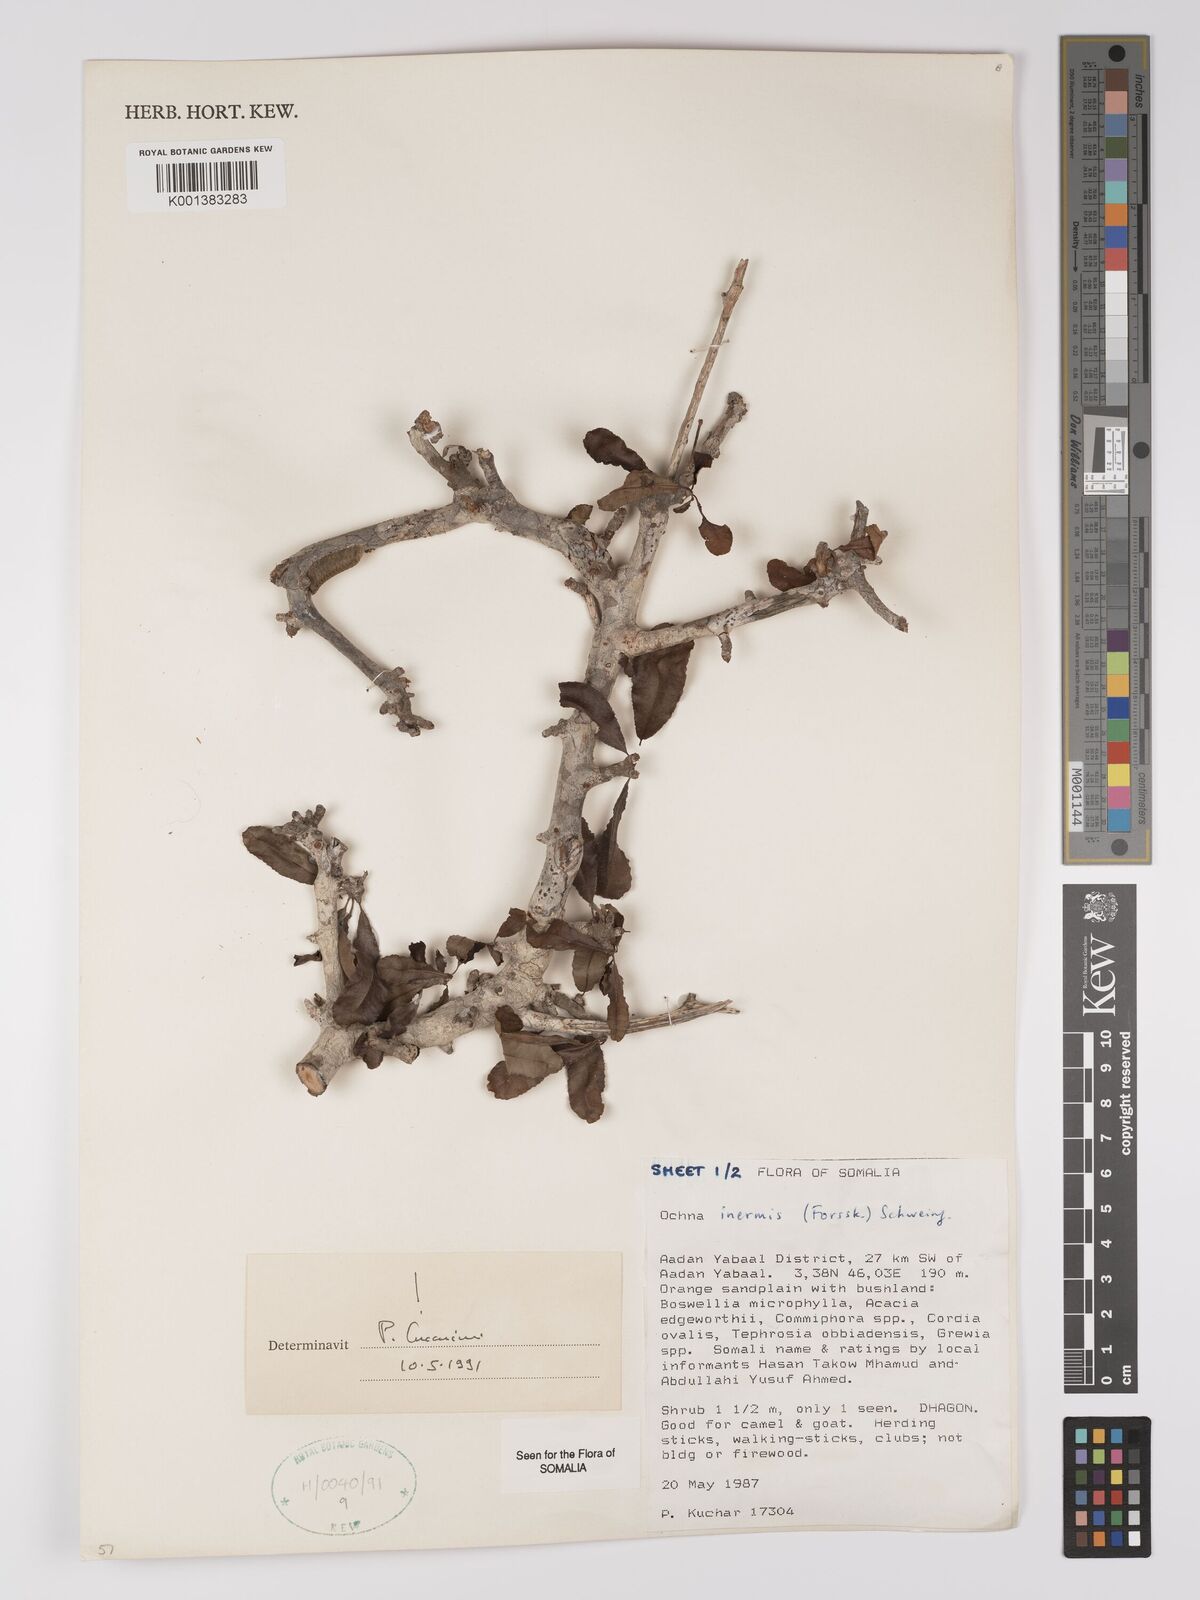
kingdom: Plantae
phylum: Tracheophyta
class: Magnoliopsida
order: Malpighiales
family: Ochnaceae
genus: Ochna
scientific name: Ochna inermis
